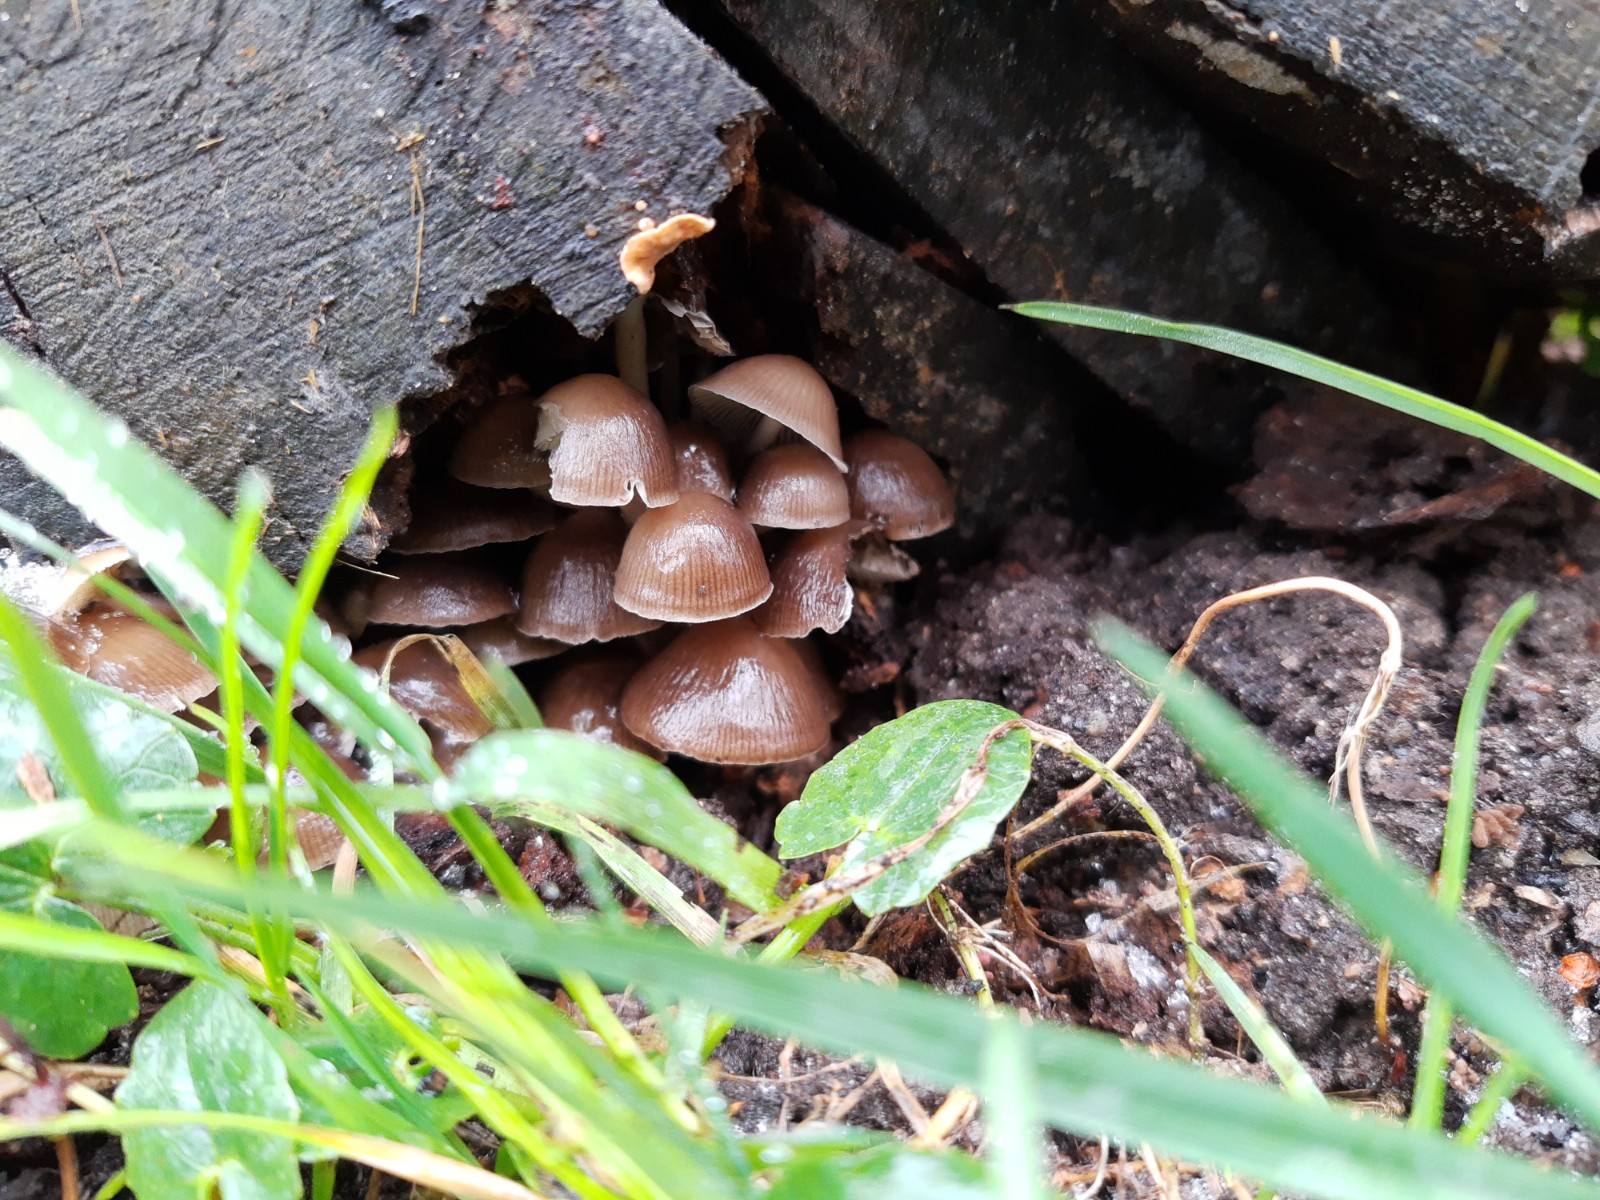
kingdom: Fungi
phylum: Basidiomycota
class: Agaricomycetes
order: Agaricales
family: Mycenaceae
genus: Mycena
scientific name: Mycena tintinnabulum
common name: vinter-huesvamp
